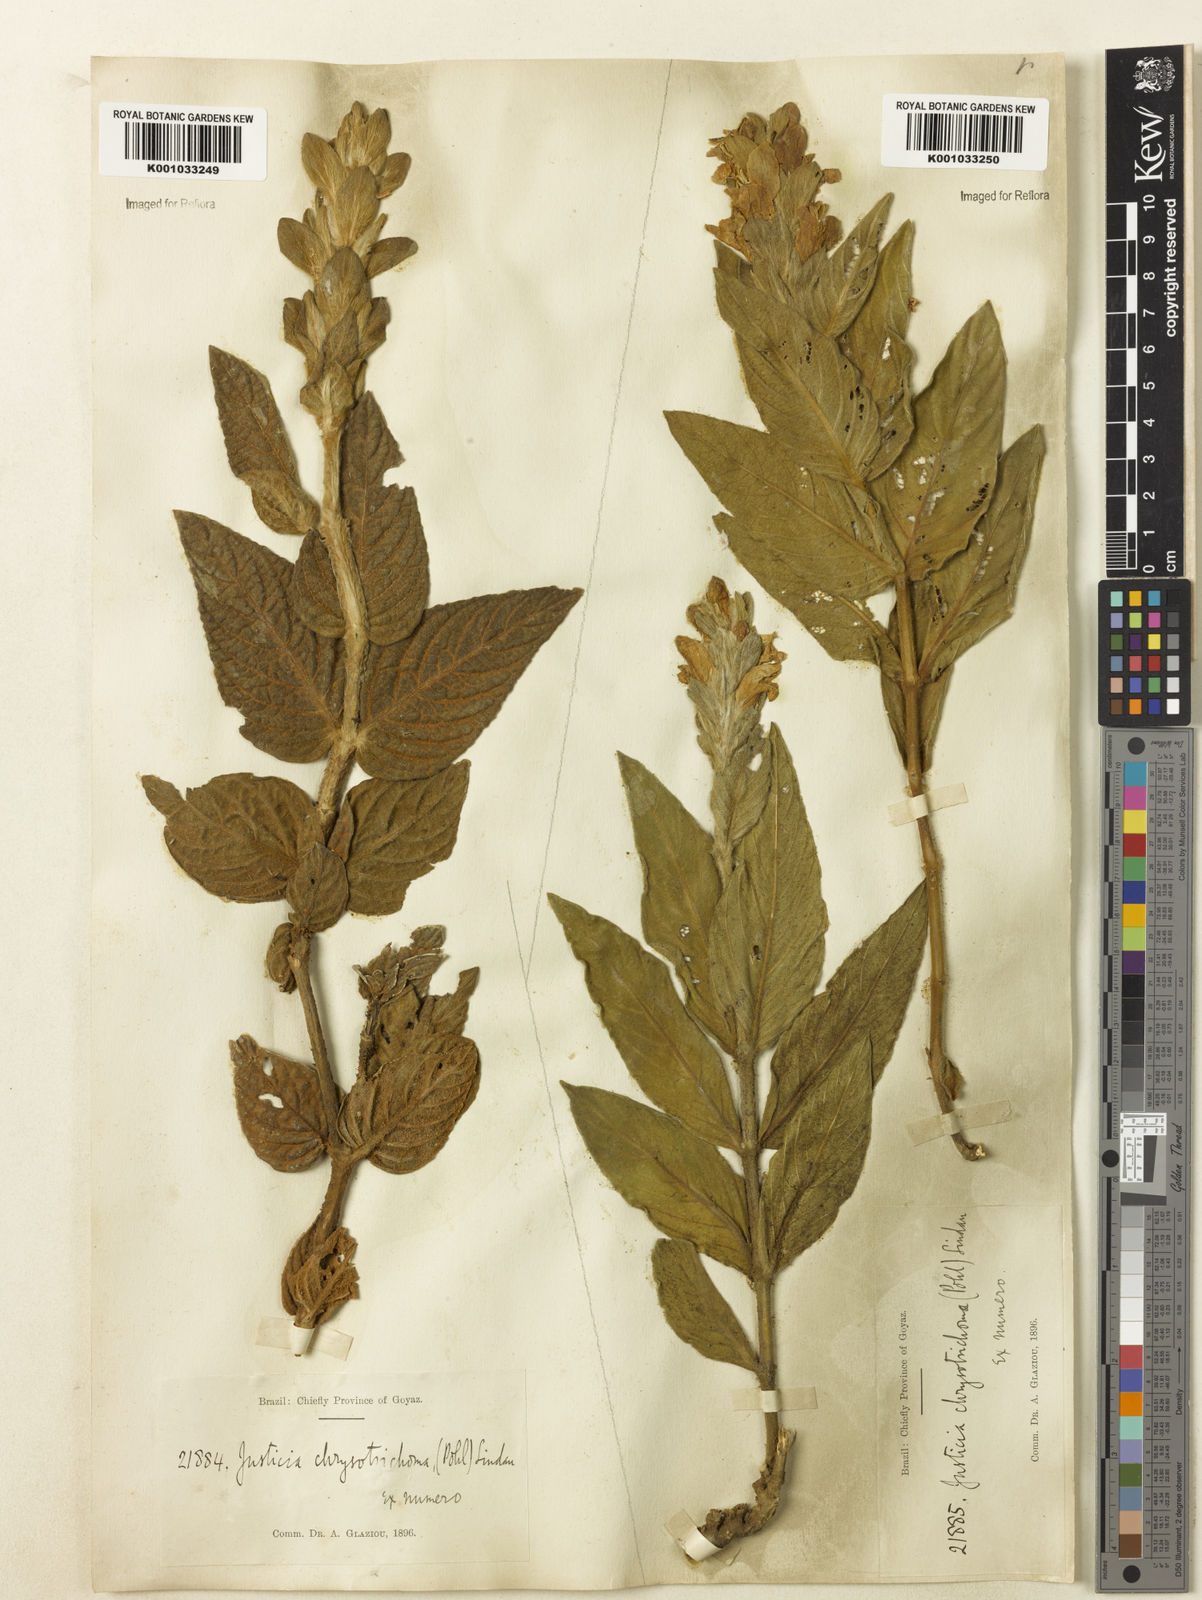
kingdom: Plantae
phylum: Tracheophyta
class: Magnoliopsida
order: Lamiales
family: Acanthaceae
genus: Justicia
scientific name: Justicia chrysotrichoma
